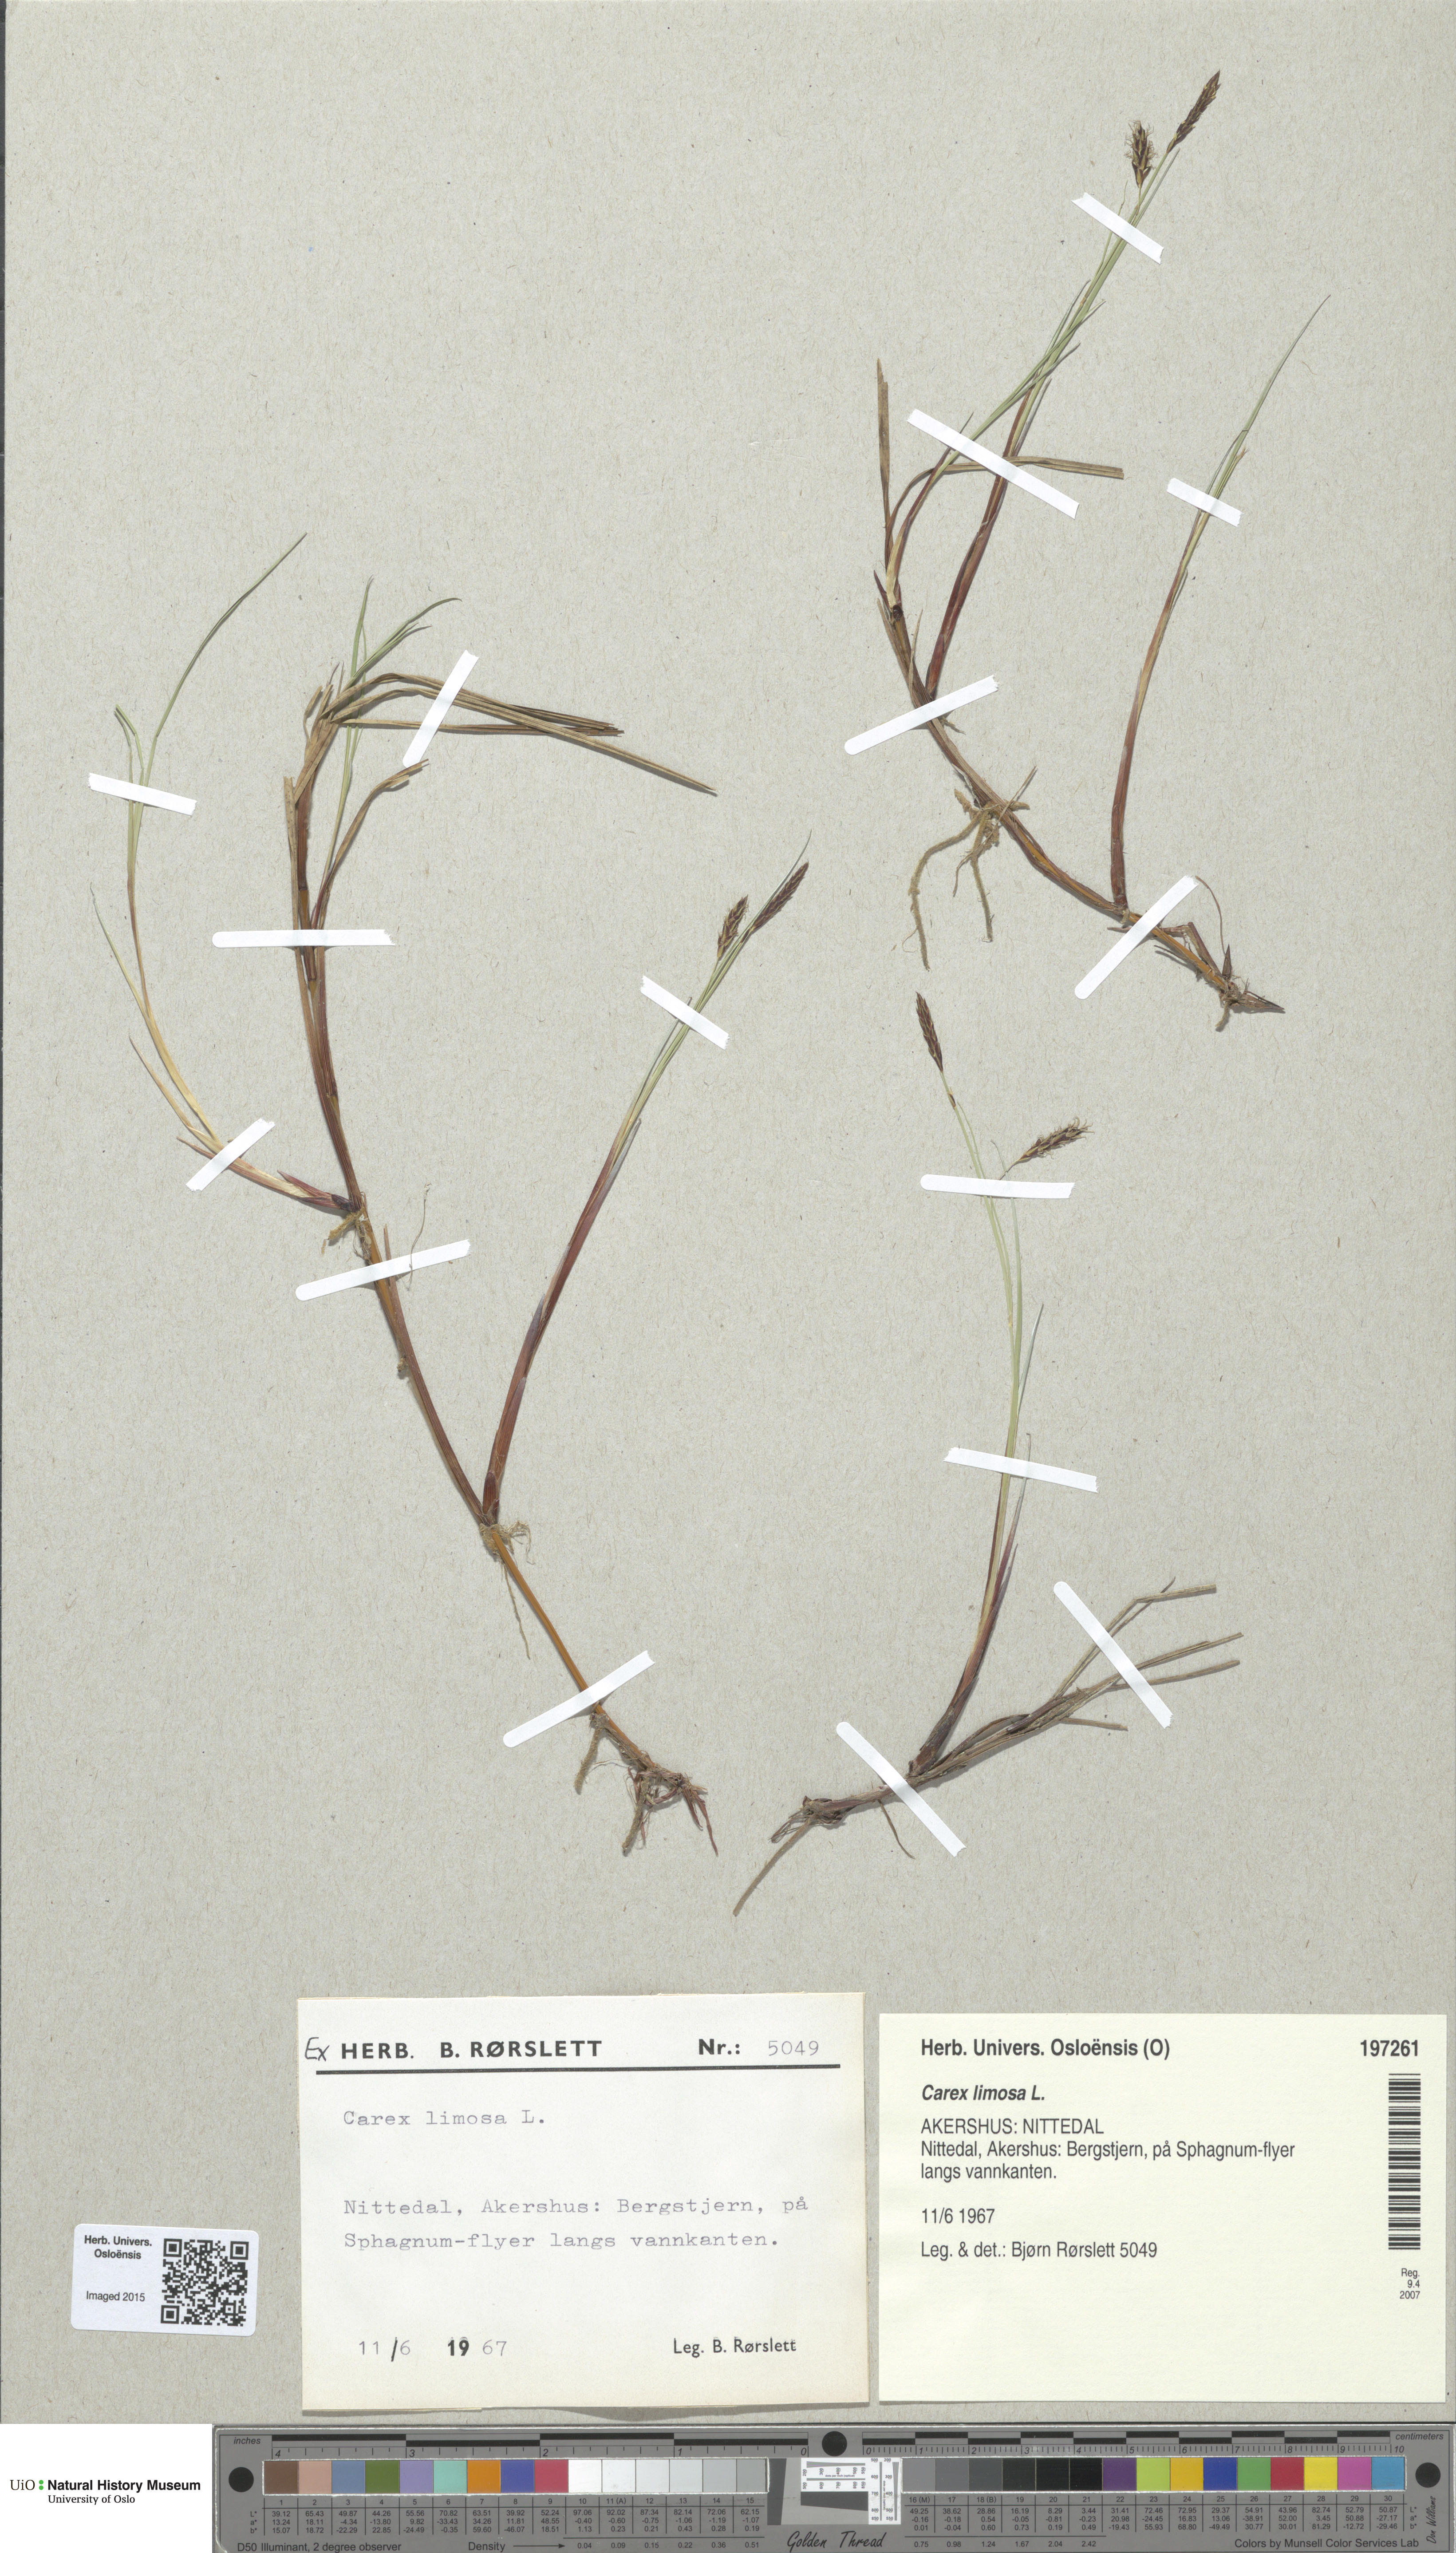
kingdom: Plantae
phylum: Tracheophyta
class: Liliopsida
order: Poales
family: Cyperaceae
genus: Carex
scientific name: Carex limosa
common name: Bog sedge
